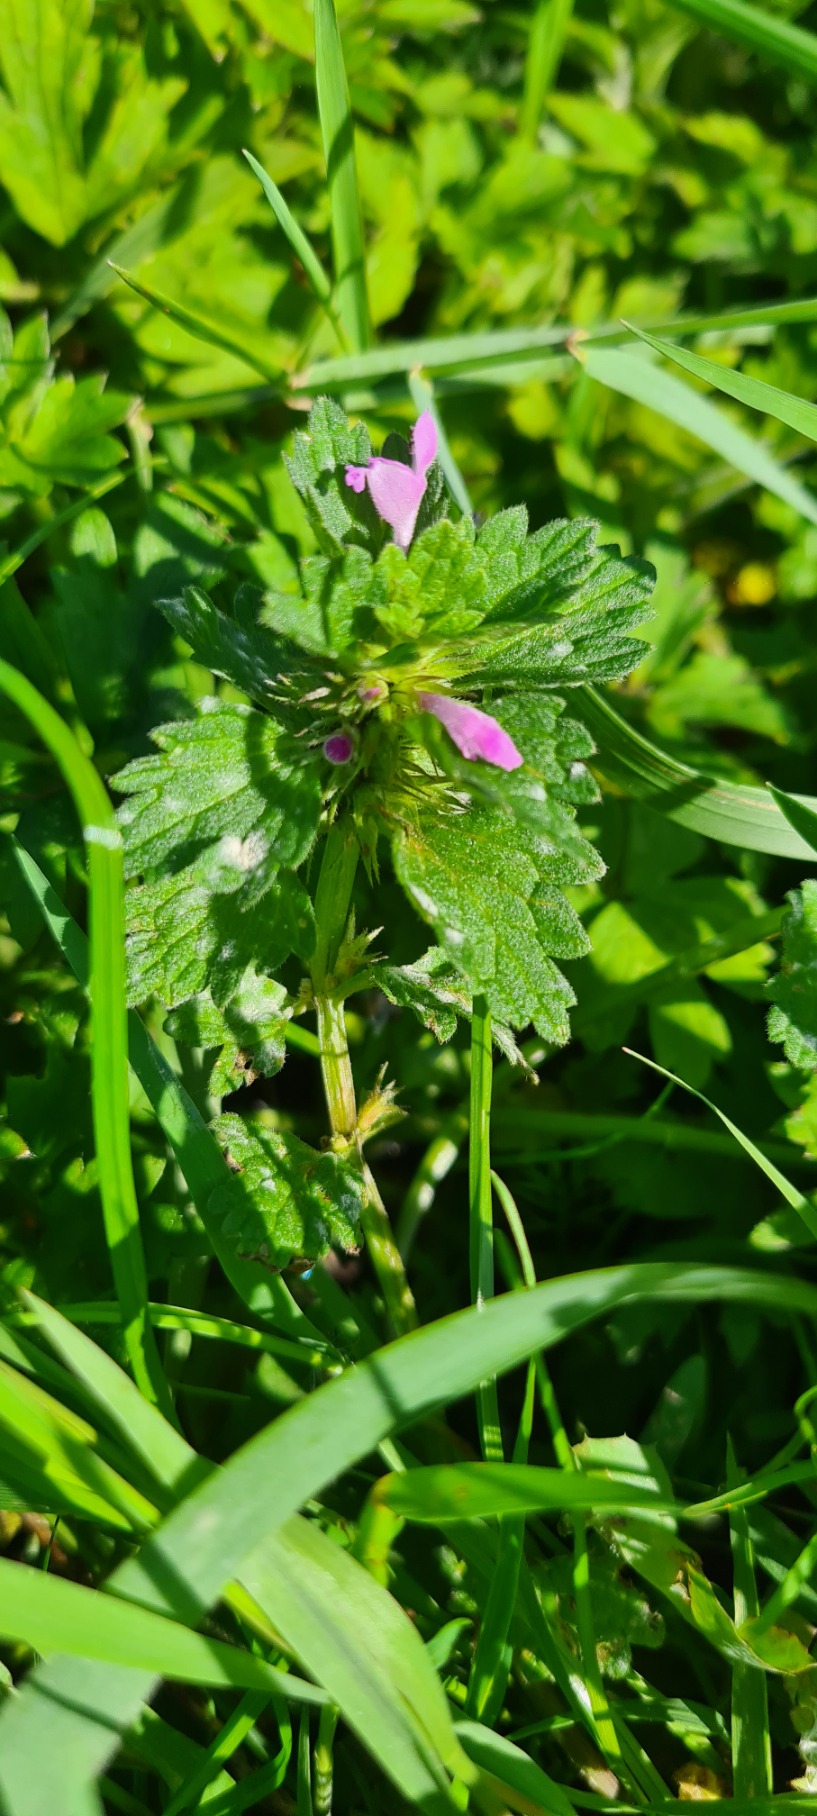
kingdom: Plantae
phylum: Tracheophyta
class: Magnoliopsida
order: Lamiales
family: Lamiaceae
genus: Lamium
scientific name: Lamium hybridum
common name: Fliget tvetand
